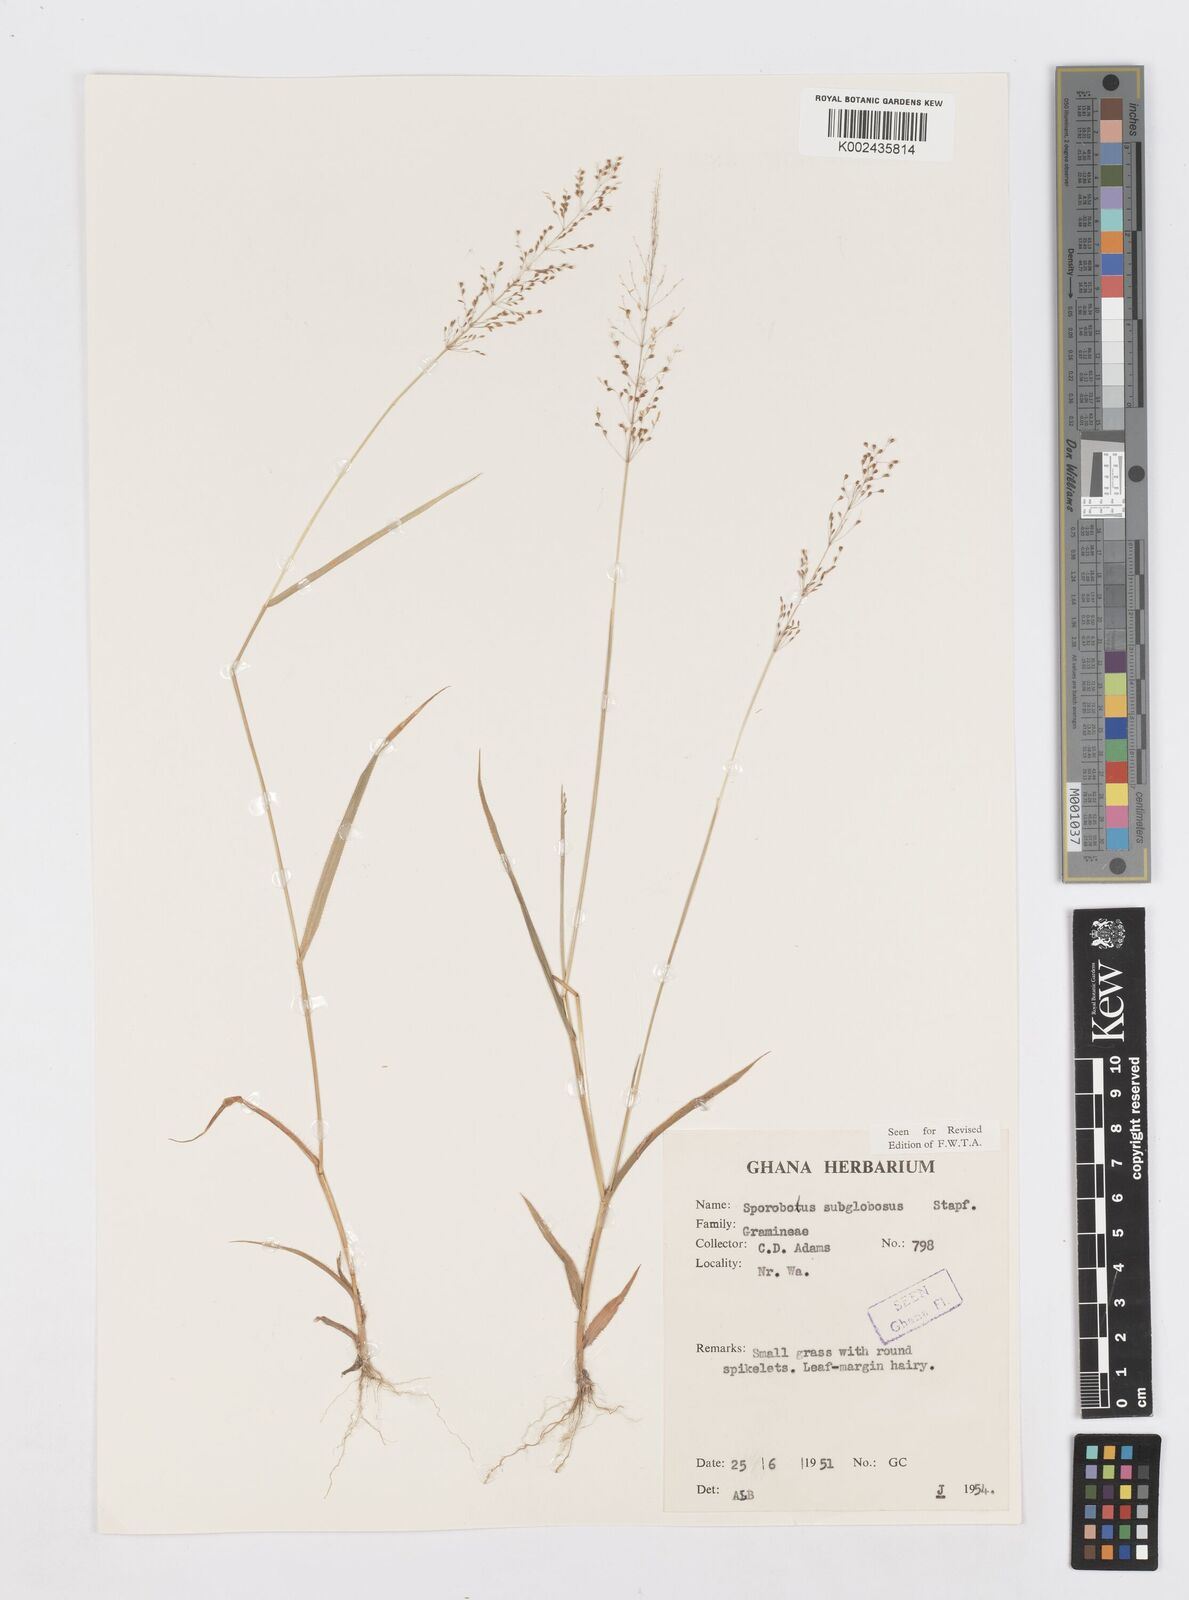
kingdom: Plantae
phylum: Tracheophyta
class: Liliopsida
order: Poales
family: Poaceae
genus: Sporobolus
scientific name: Sporobolus subglobosus
